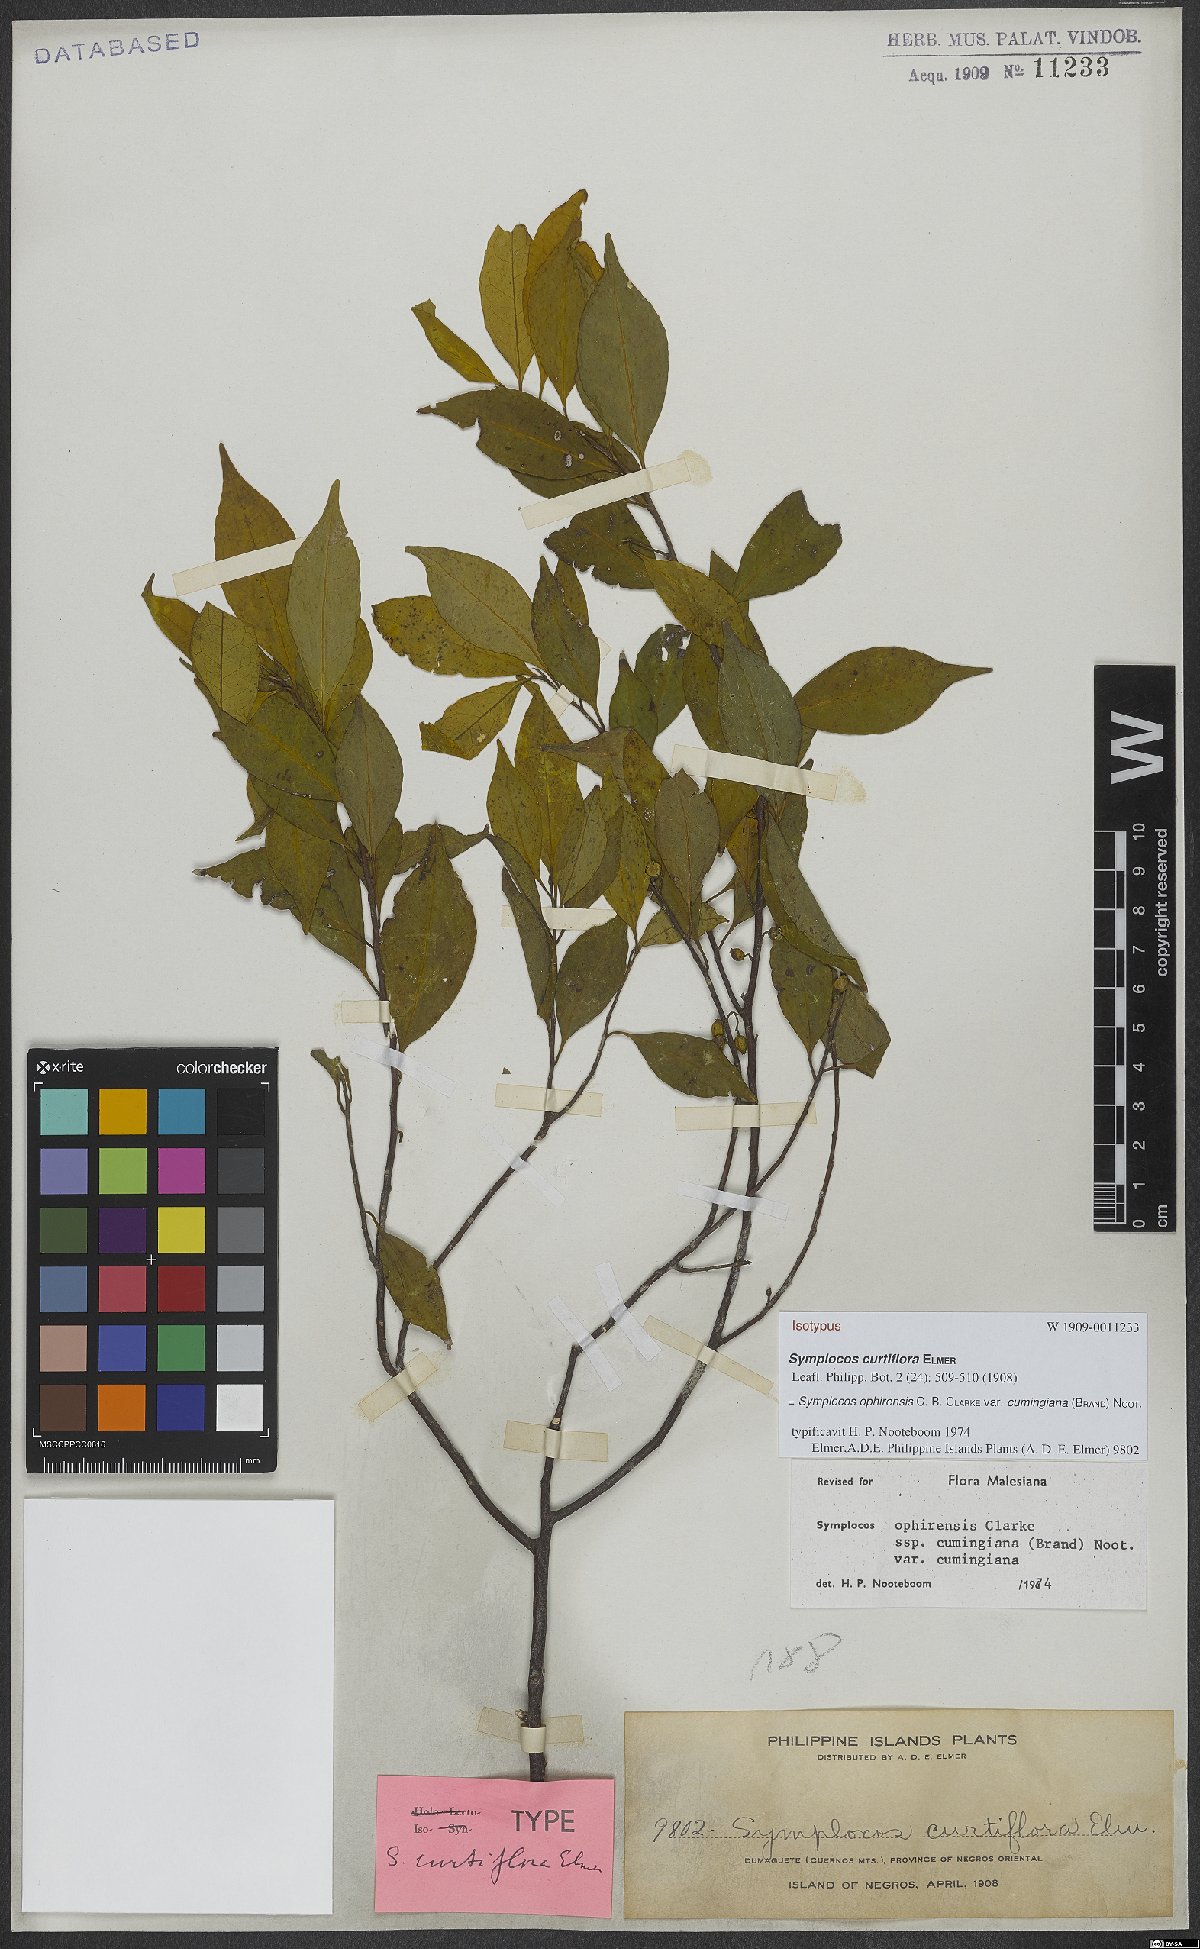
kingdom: Plantae
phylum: Tracheophyta
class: Magnoliopsida
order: Ericales
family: Symplocaceae
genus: Symplocos
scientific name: Symplocos ophirensis
